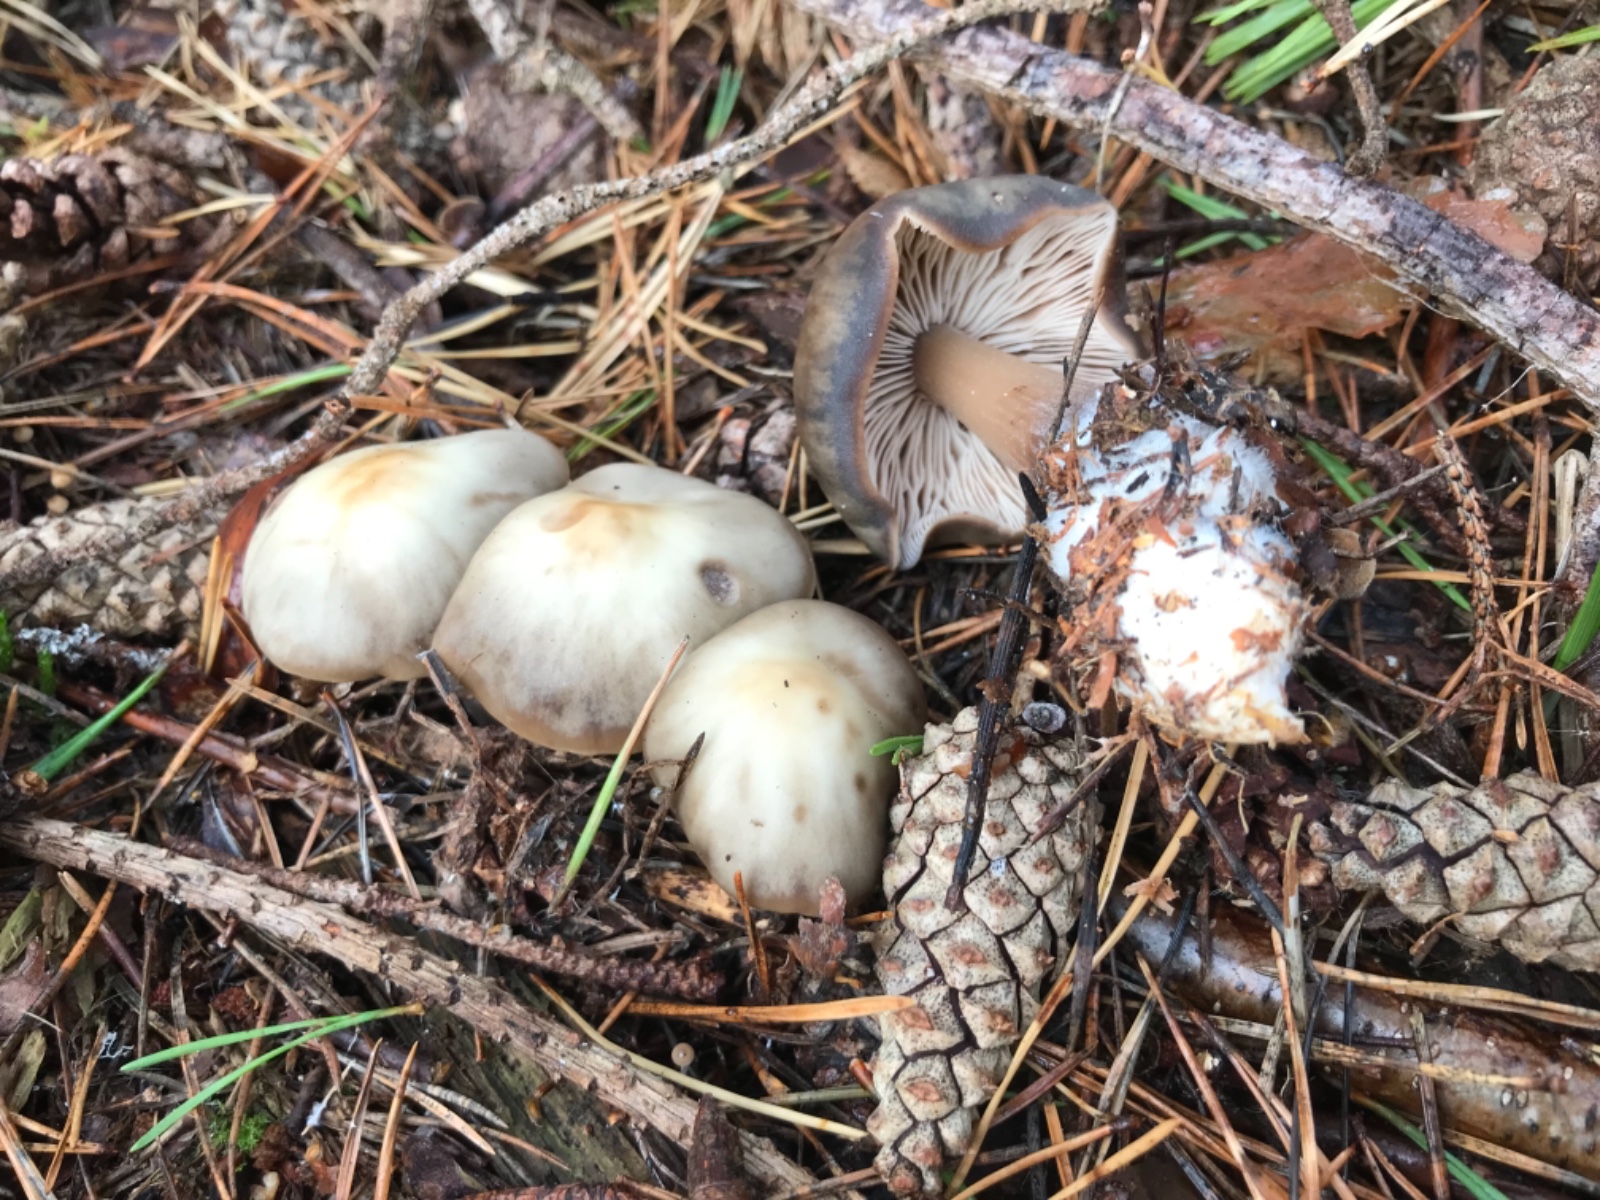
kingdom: Fungi
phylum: Basidiomycota
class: Agaricomycetes
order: Agaricales
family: Omphalotaceae
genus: Rhodocollybia
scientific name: Rhodocollybia asema
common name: horngrå fladhat
